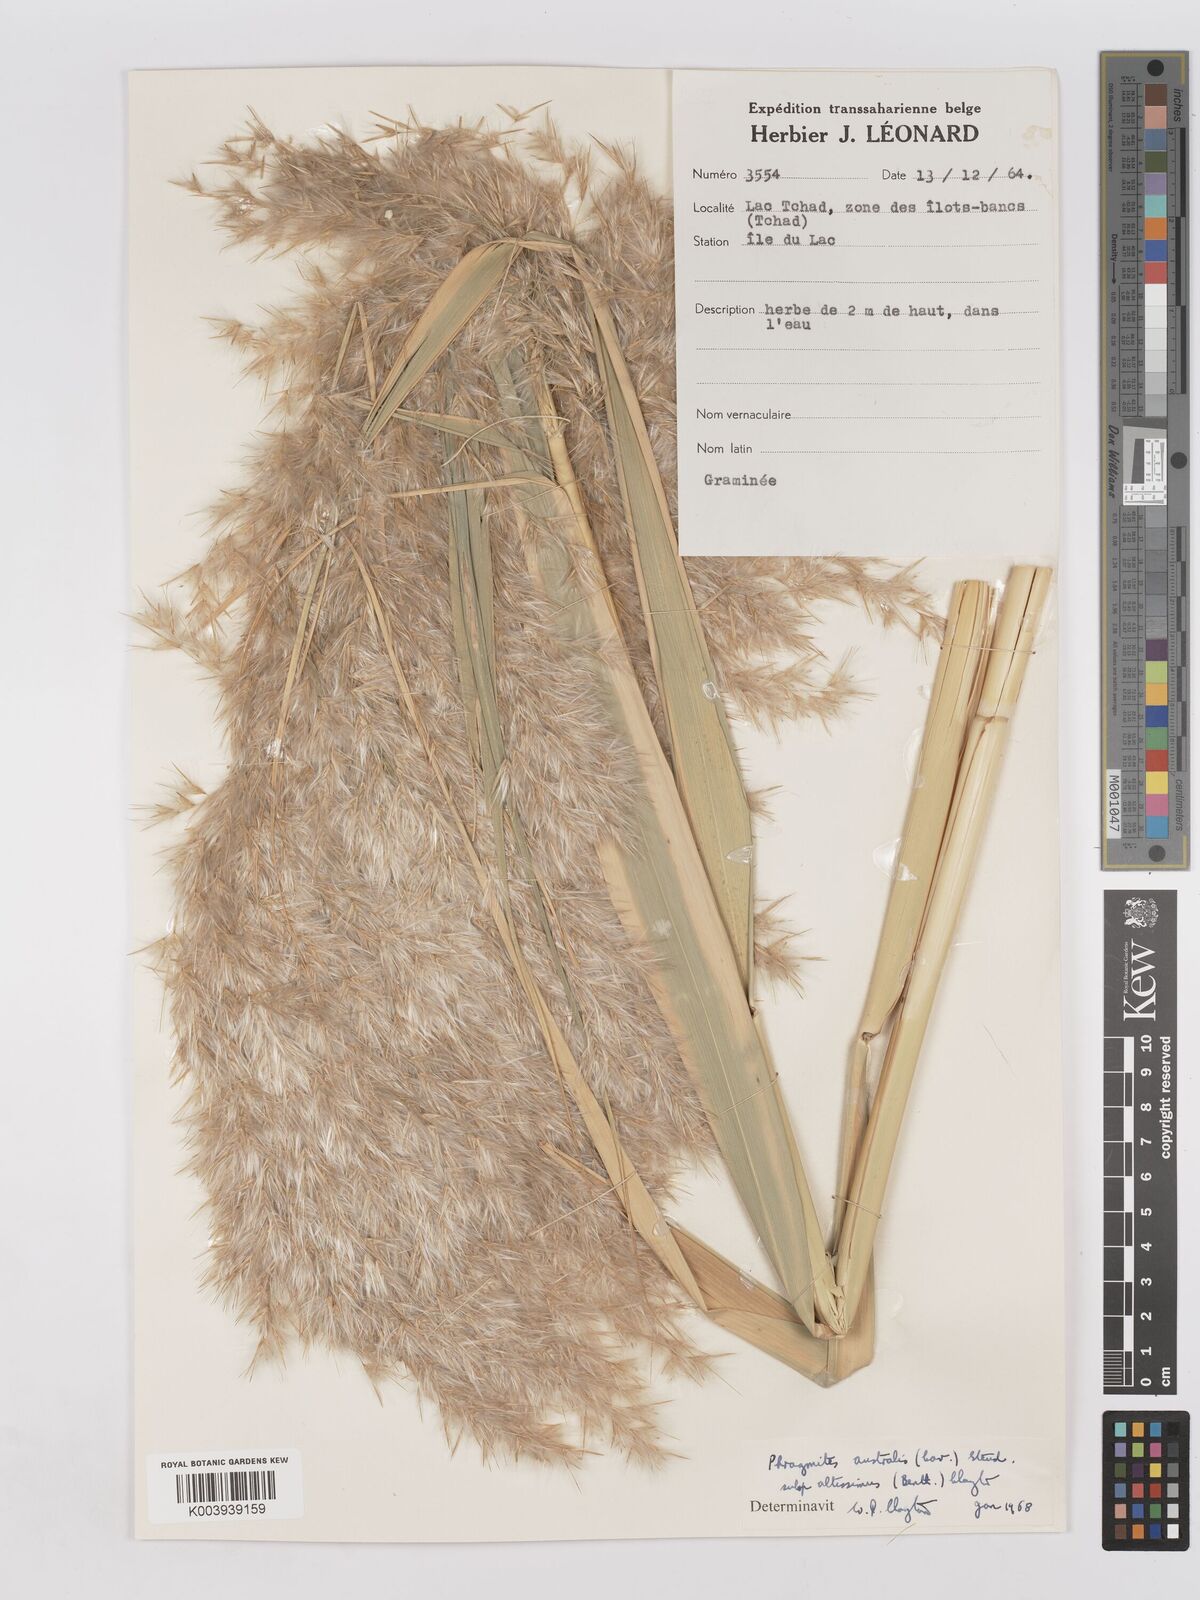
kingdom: Plantae
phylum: Tracheophyta
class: Liliopsida
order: Poales
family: Poaceae
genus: Phragmites
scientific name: Phragmites australis
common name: Common reed
